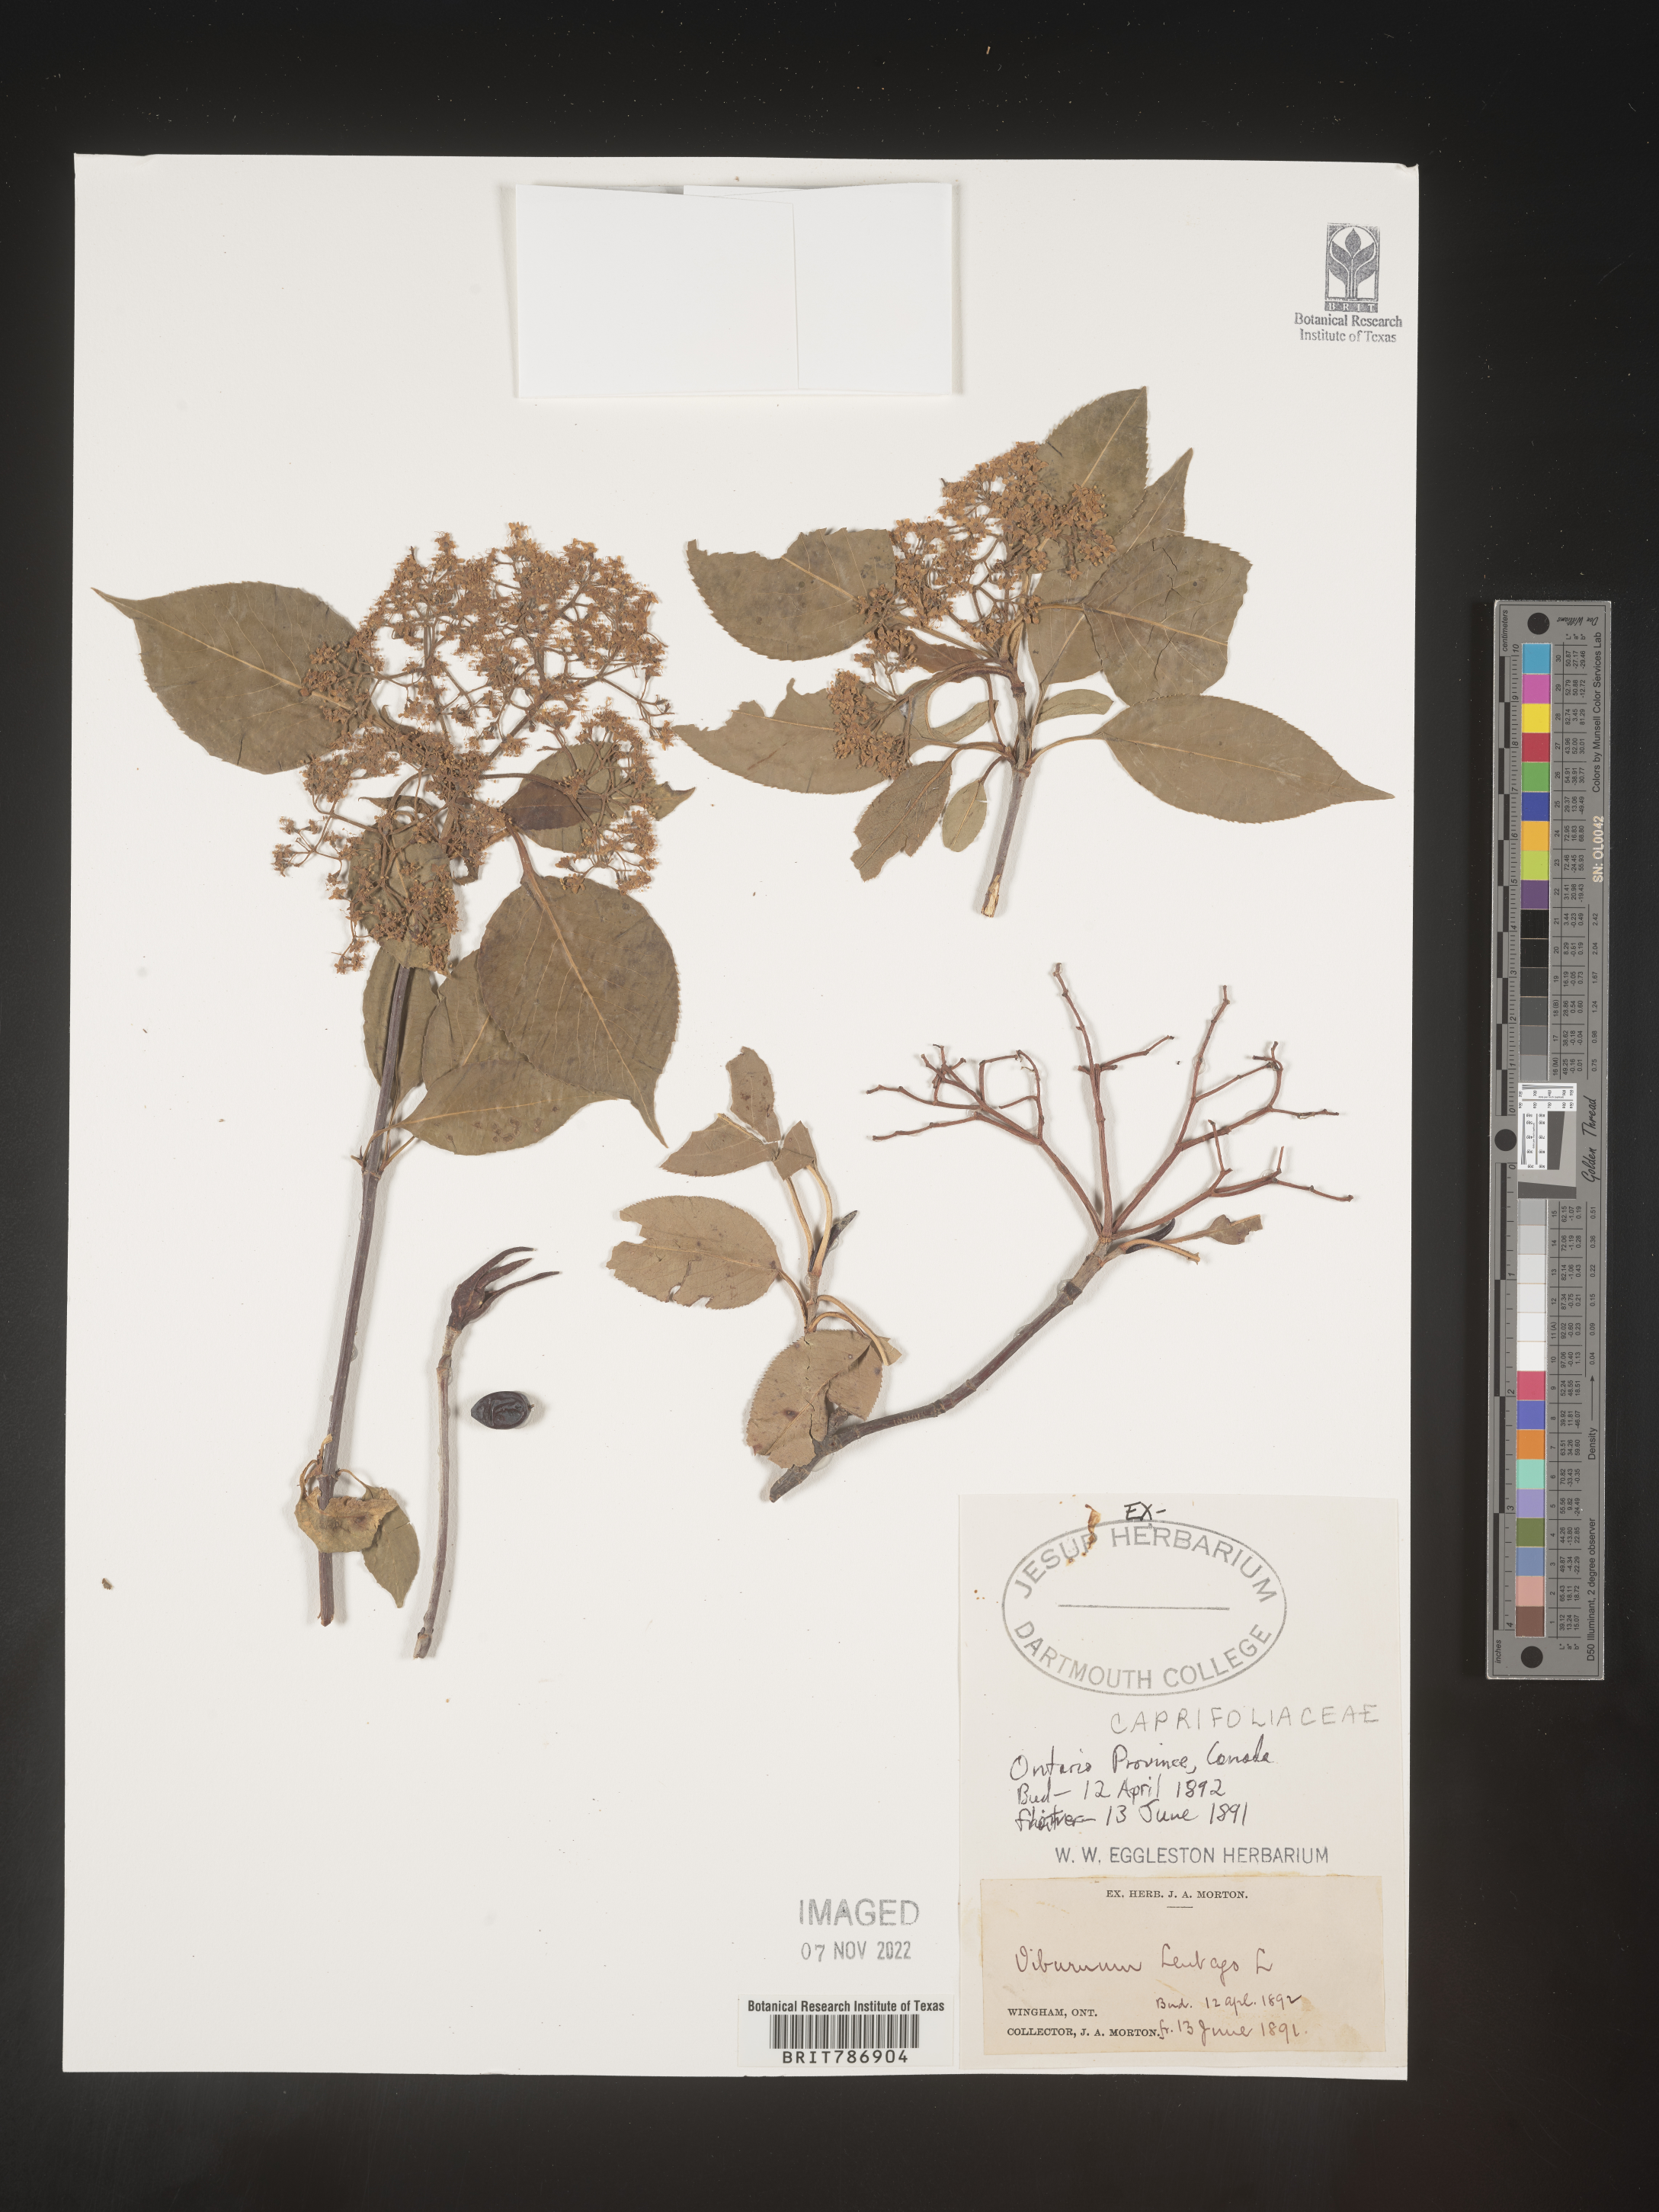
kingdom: Plantae
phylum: Tracheophyta
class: Magnoliopsida
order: Dipsacales
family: Viburnaceae
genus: Viburnum
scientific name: Viburnum lentago
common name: Black haw
